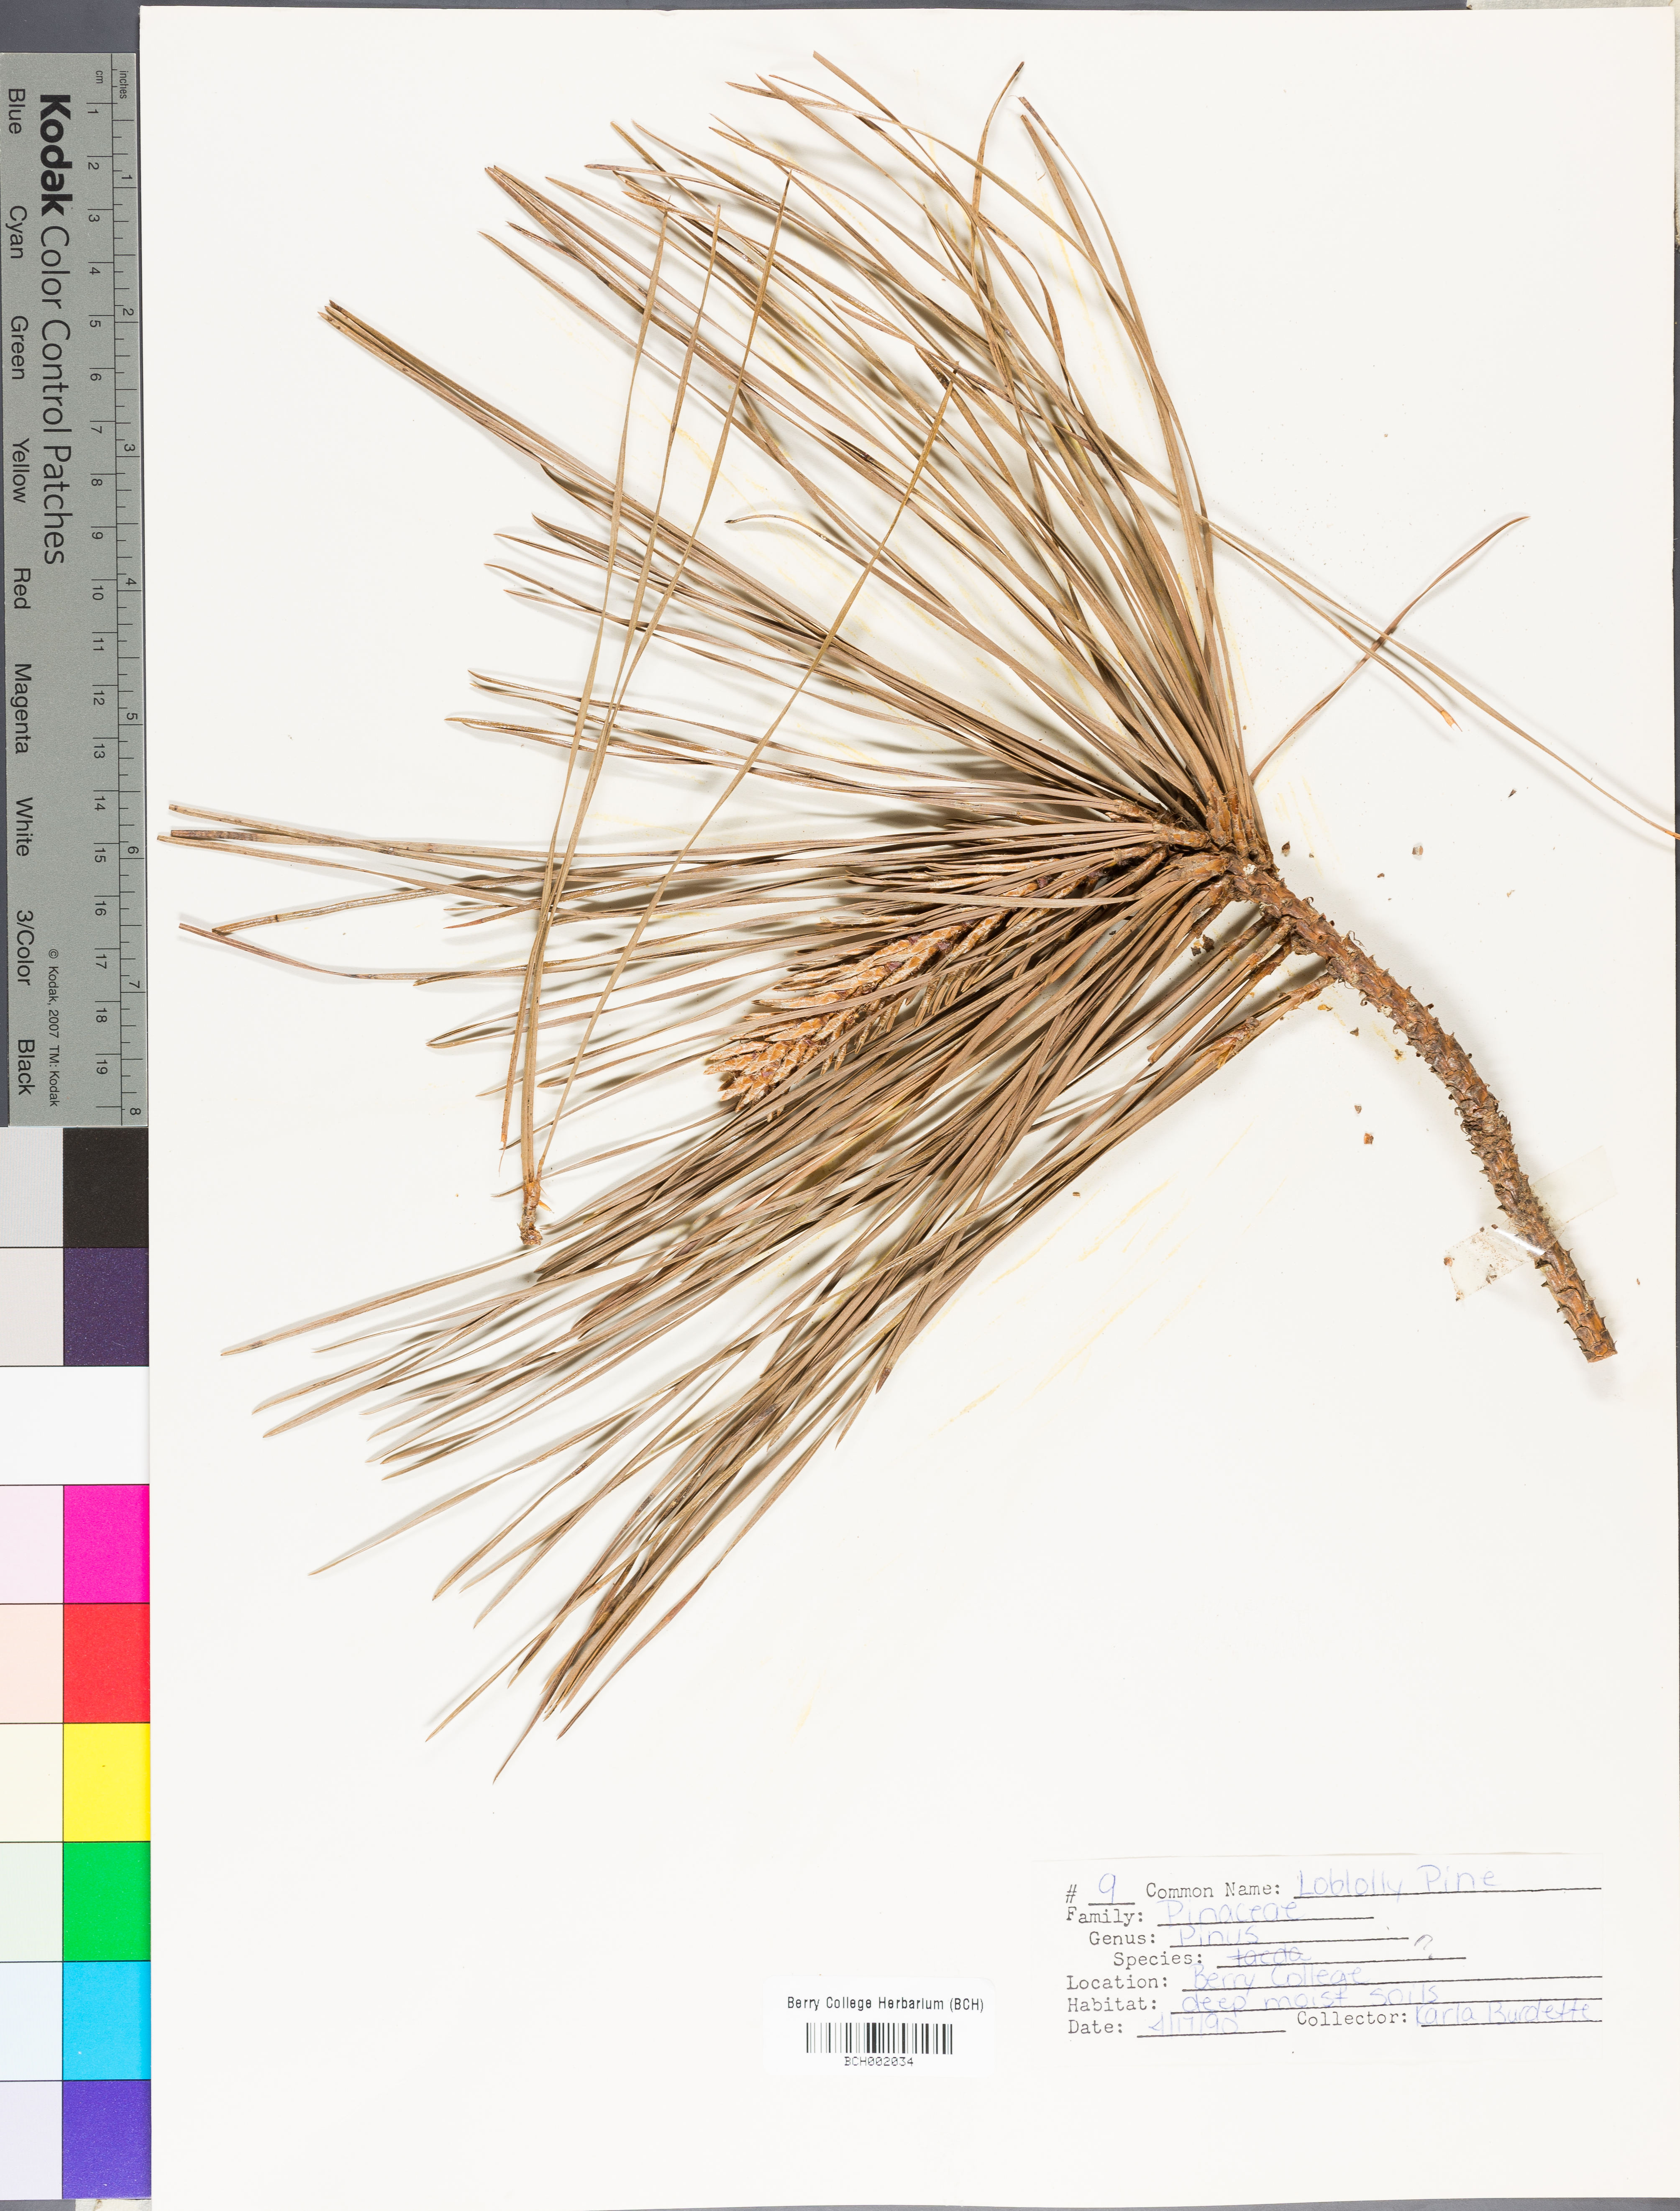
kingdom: Plantae
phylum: Tracheophyta
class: Pinopsida
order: Pinales
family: Pinaceae
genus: Pinus
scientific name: Pinus taeda
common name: Loblolly pine
